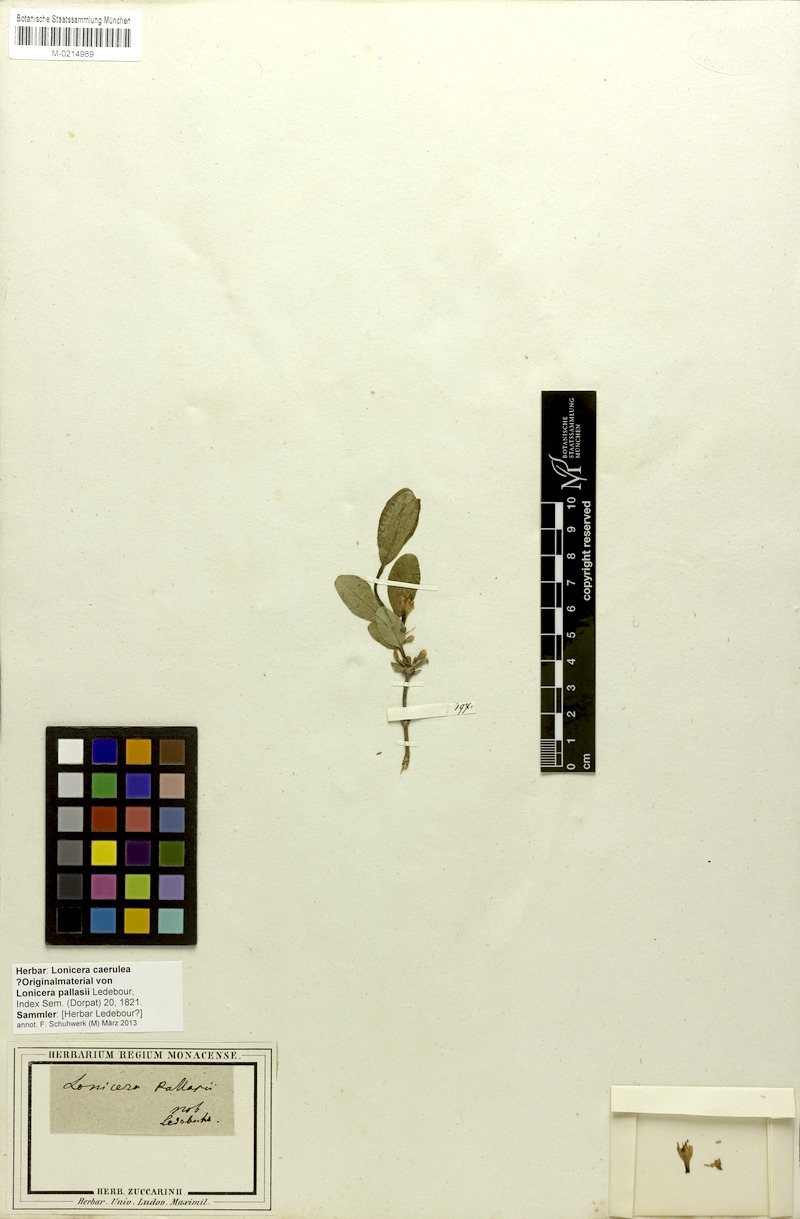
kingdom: Plantae
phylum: Tracheophyta
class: Magnoliopsida
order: Dipsacales
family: Caprifoliaceae
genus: Lonicera
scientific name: Lonicera caerulea
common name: Blue honeysuckle
